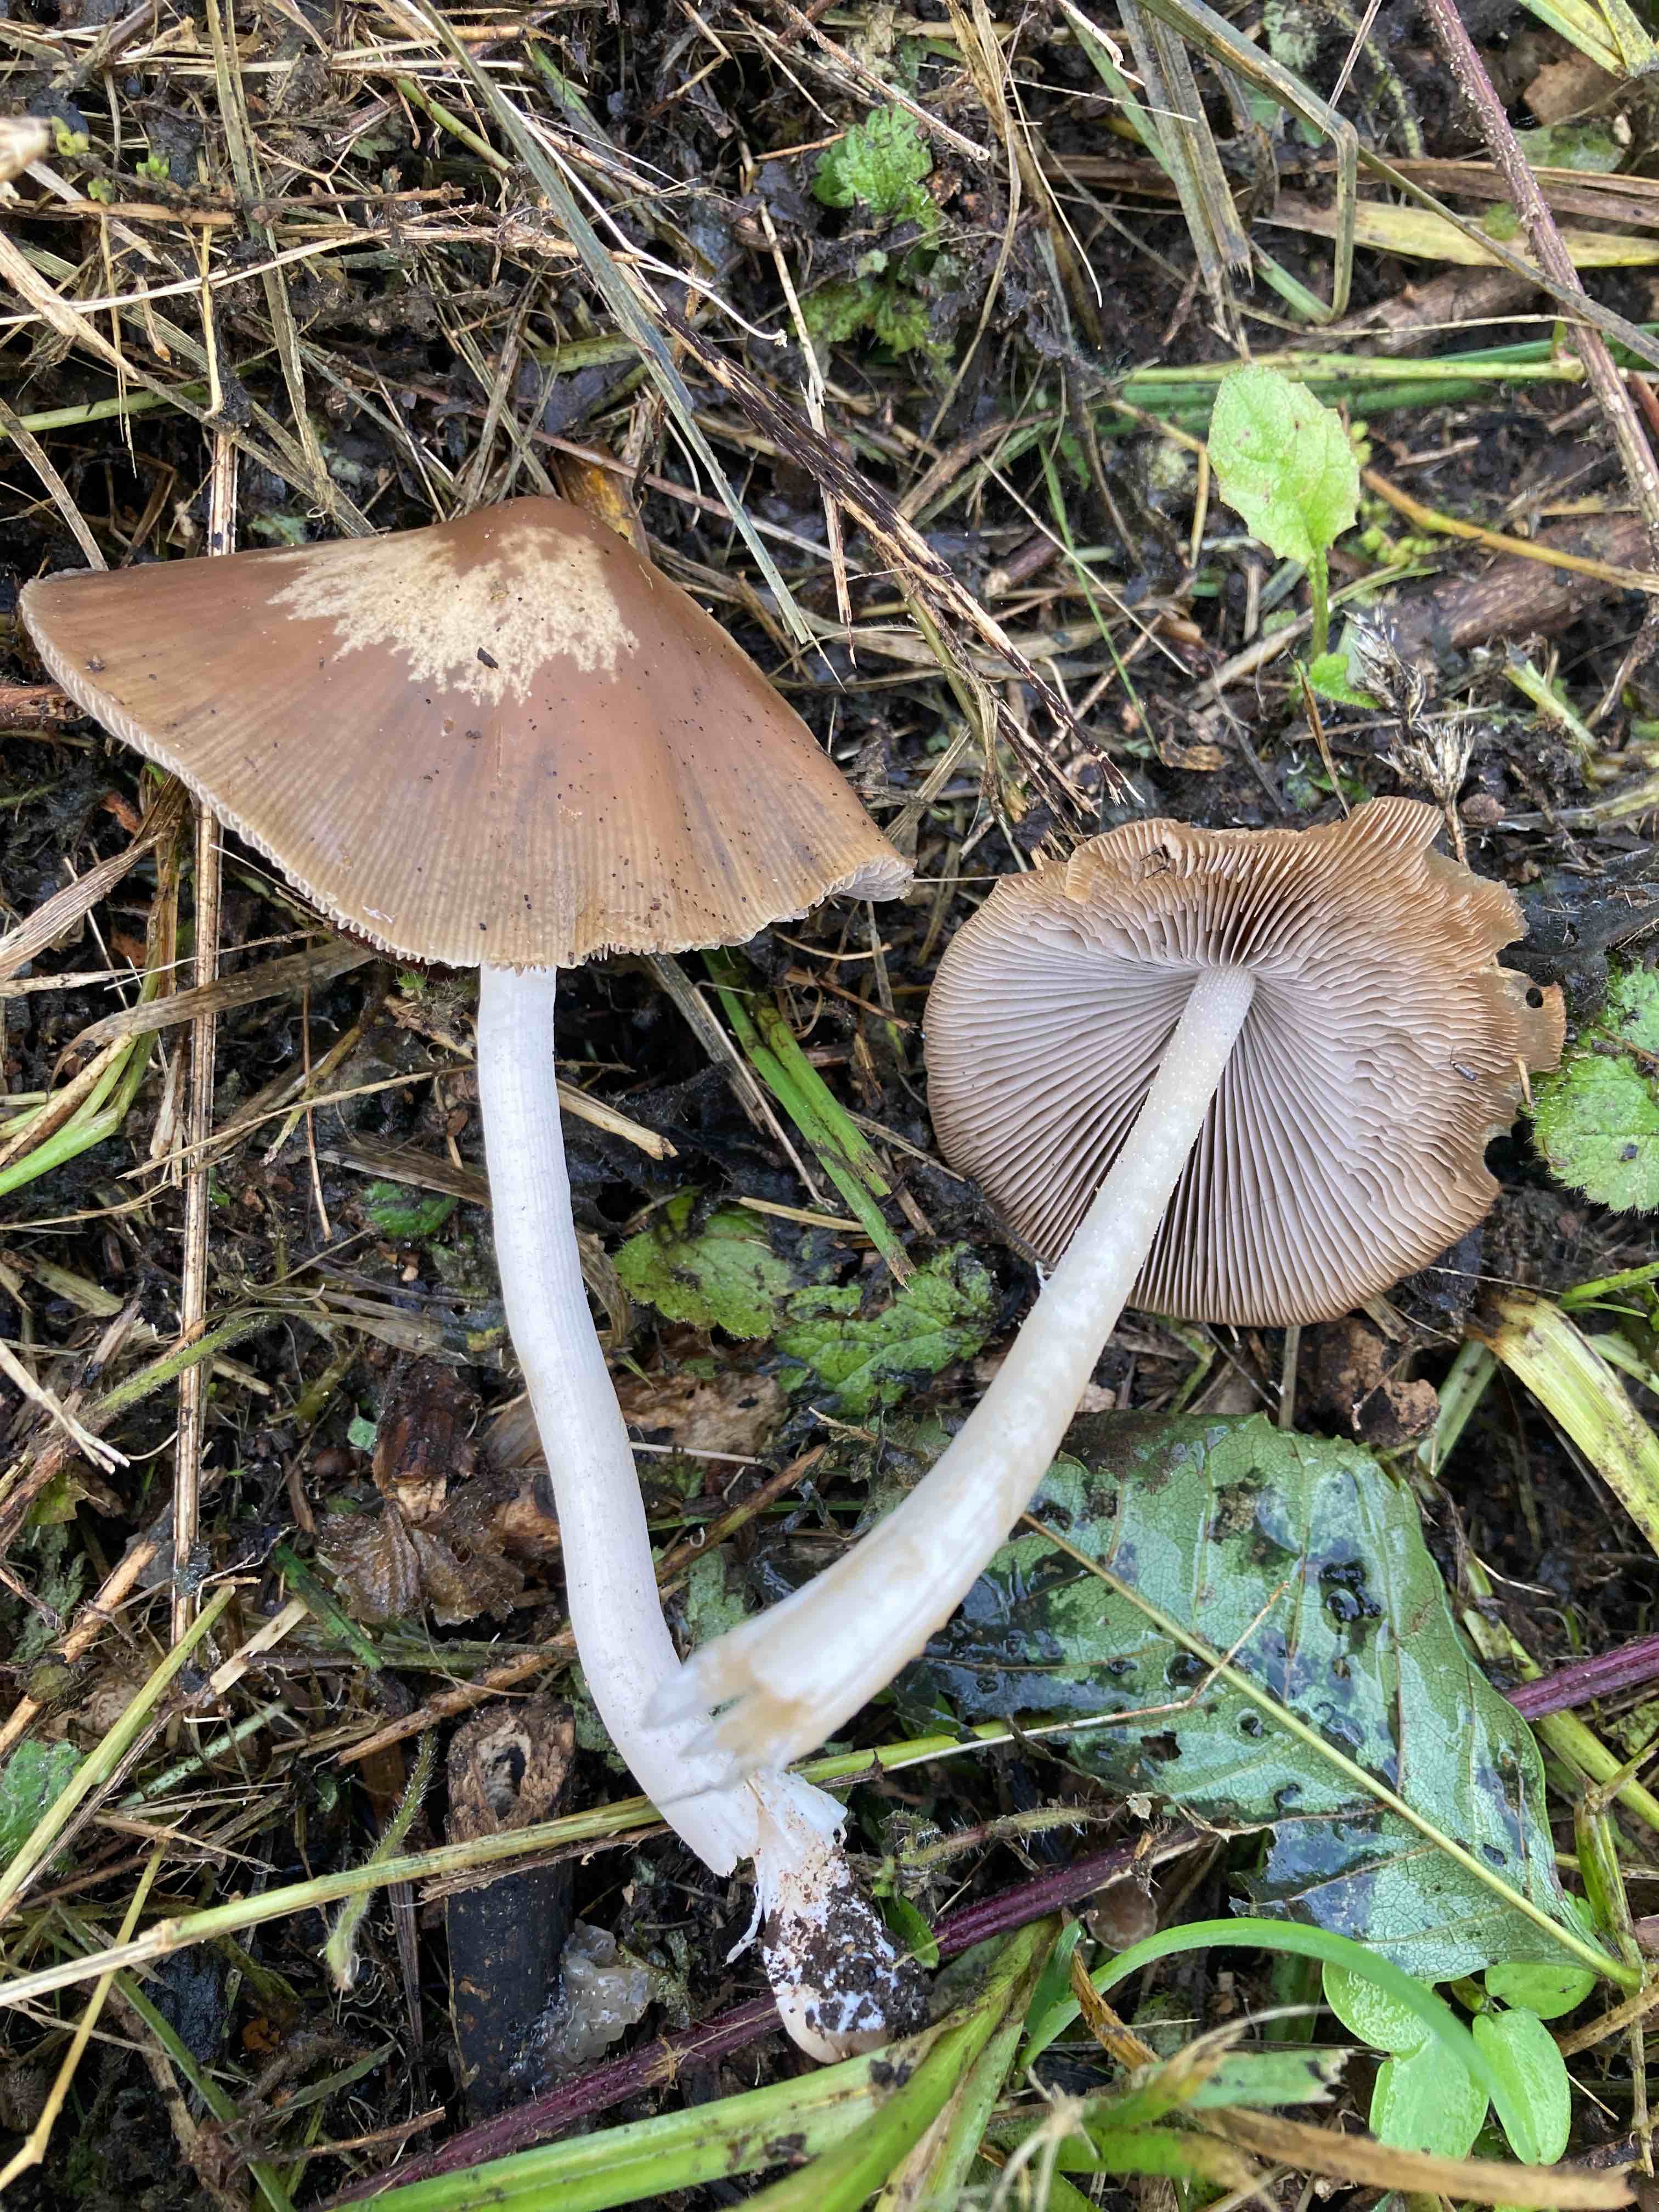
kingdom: Fungi
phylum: Basidiomycota
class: Agaricomycetes
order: Agaricales
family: Psathyrellaceae
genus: Psathyrella
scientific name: Psathyrella fusca
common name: gråbladet mørkhat
